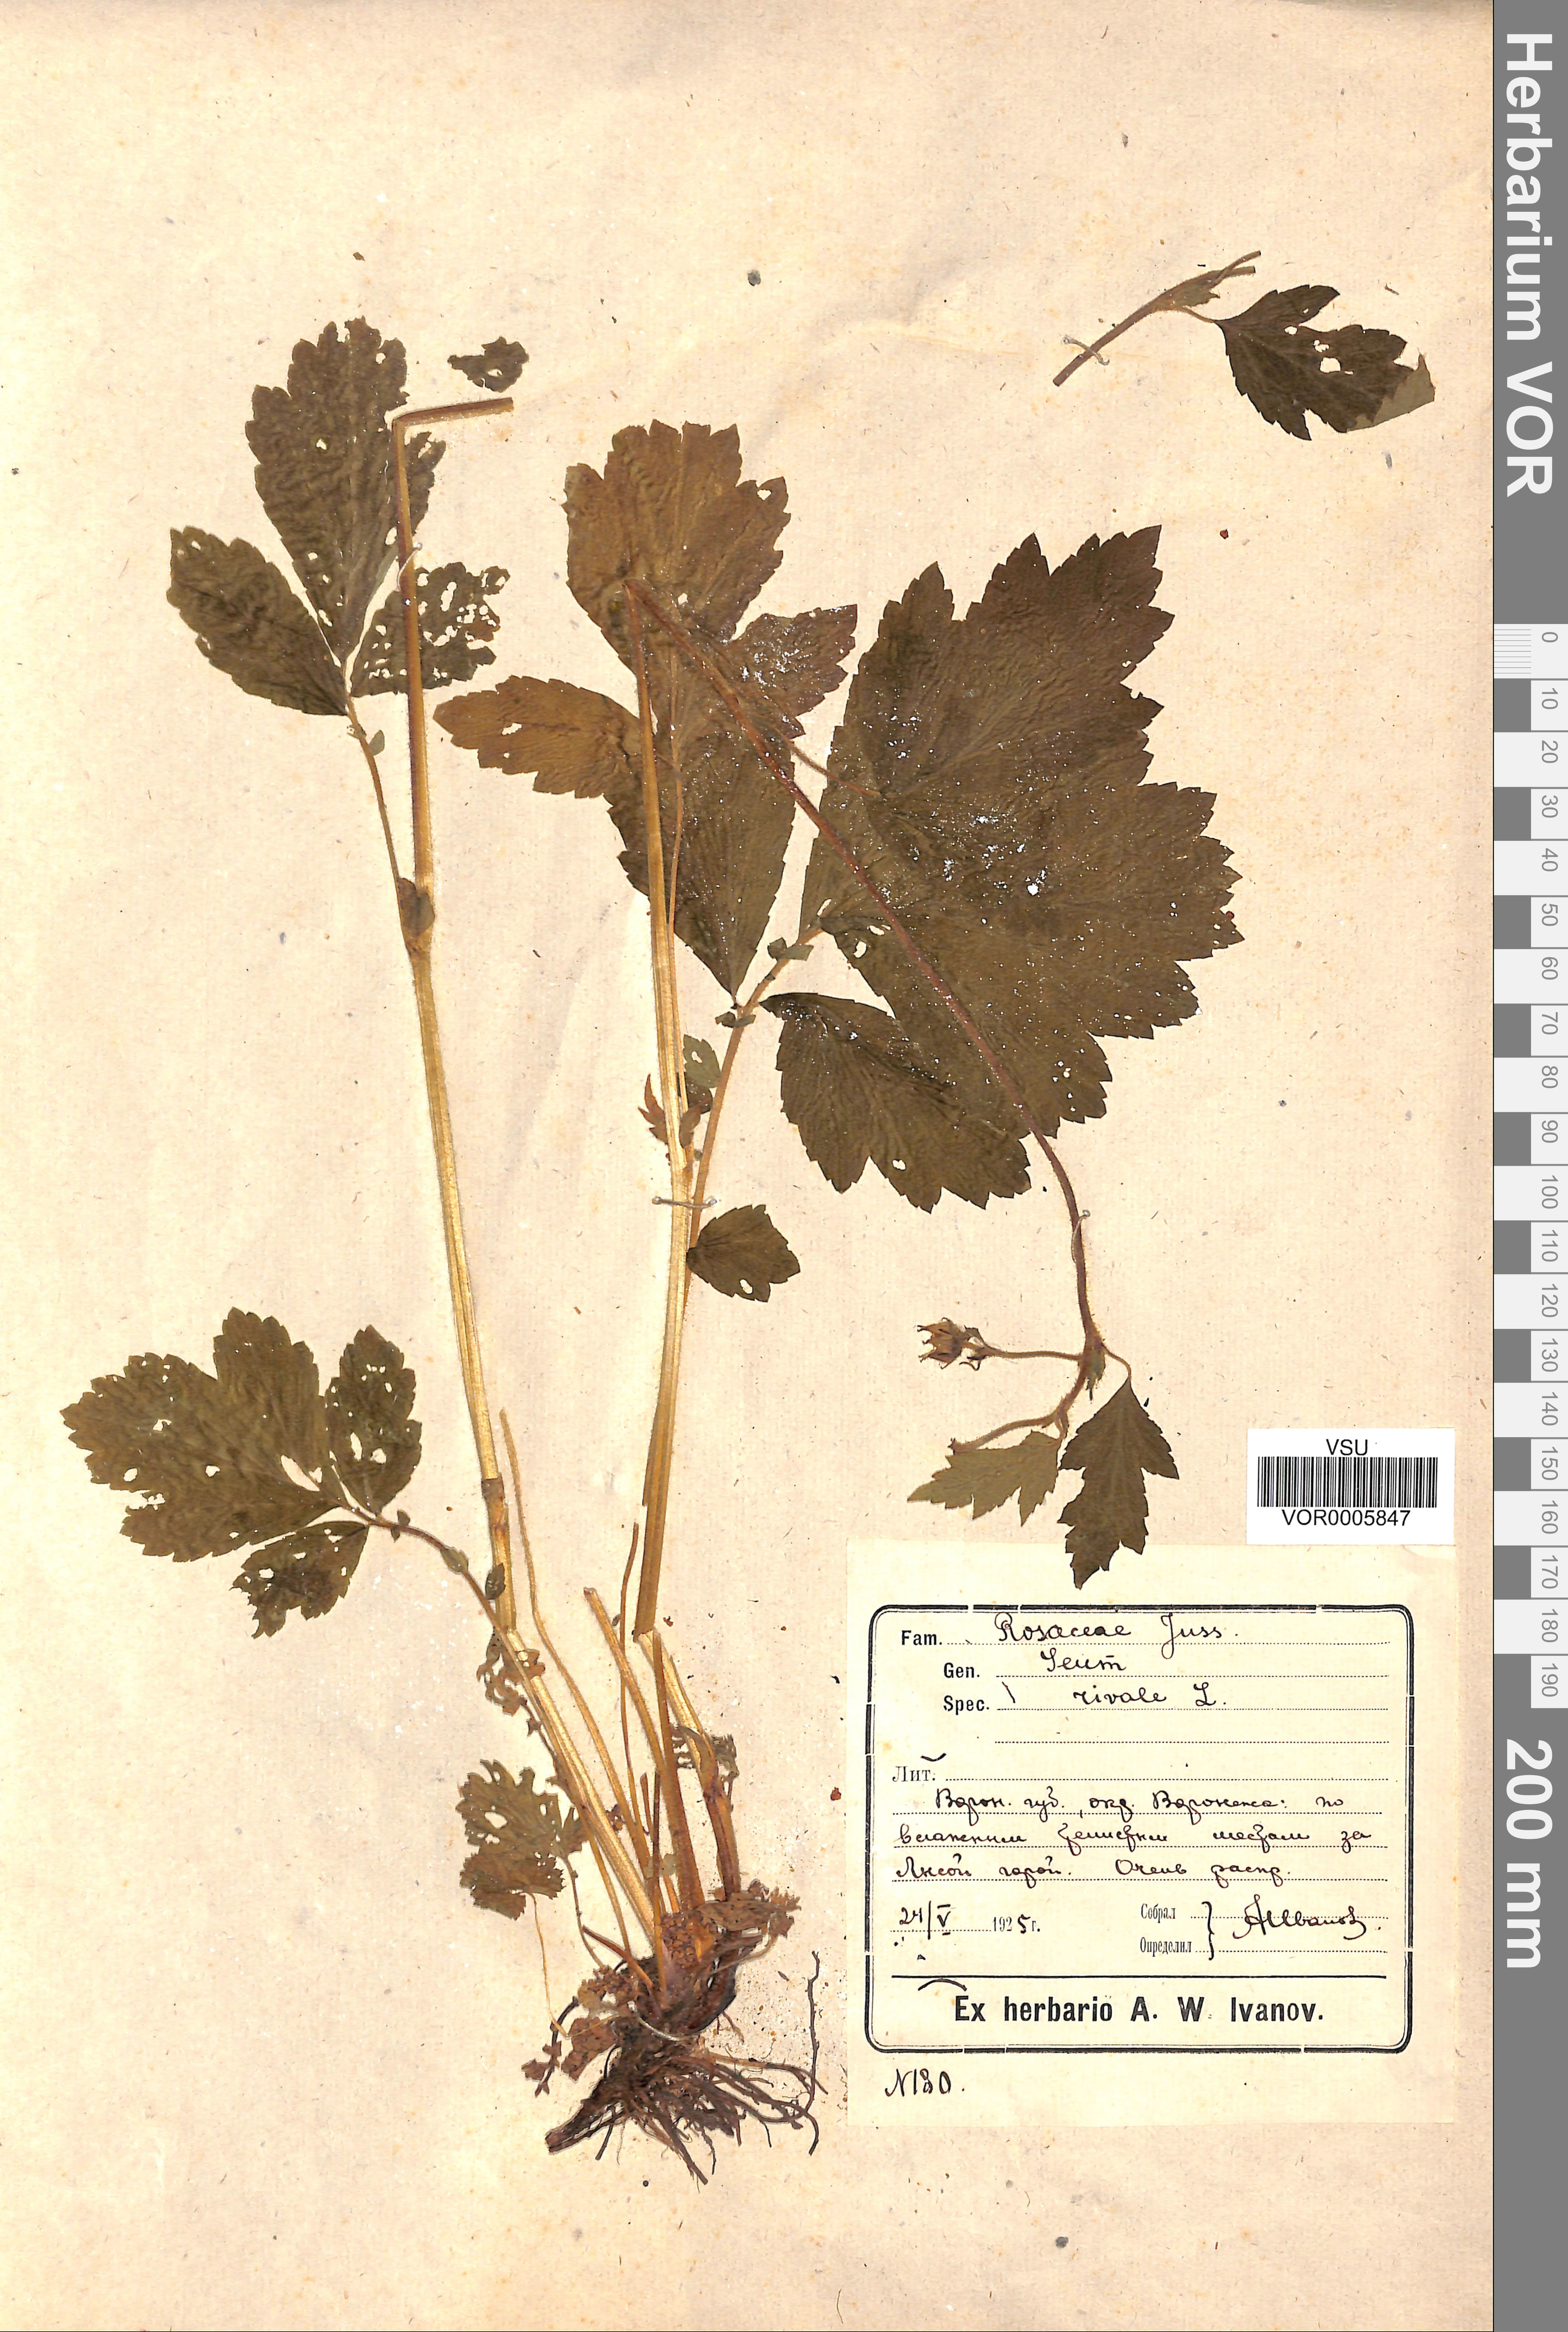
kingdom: Plantae
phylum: Tracheophyta
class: Magnoliopsida
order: Rosales
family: Rosaceae
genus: Geum
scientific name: Geum rivale
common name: Water avens
